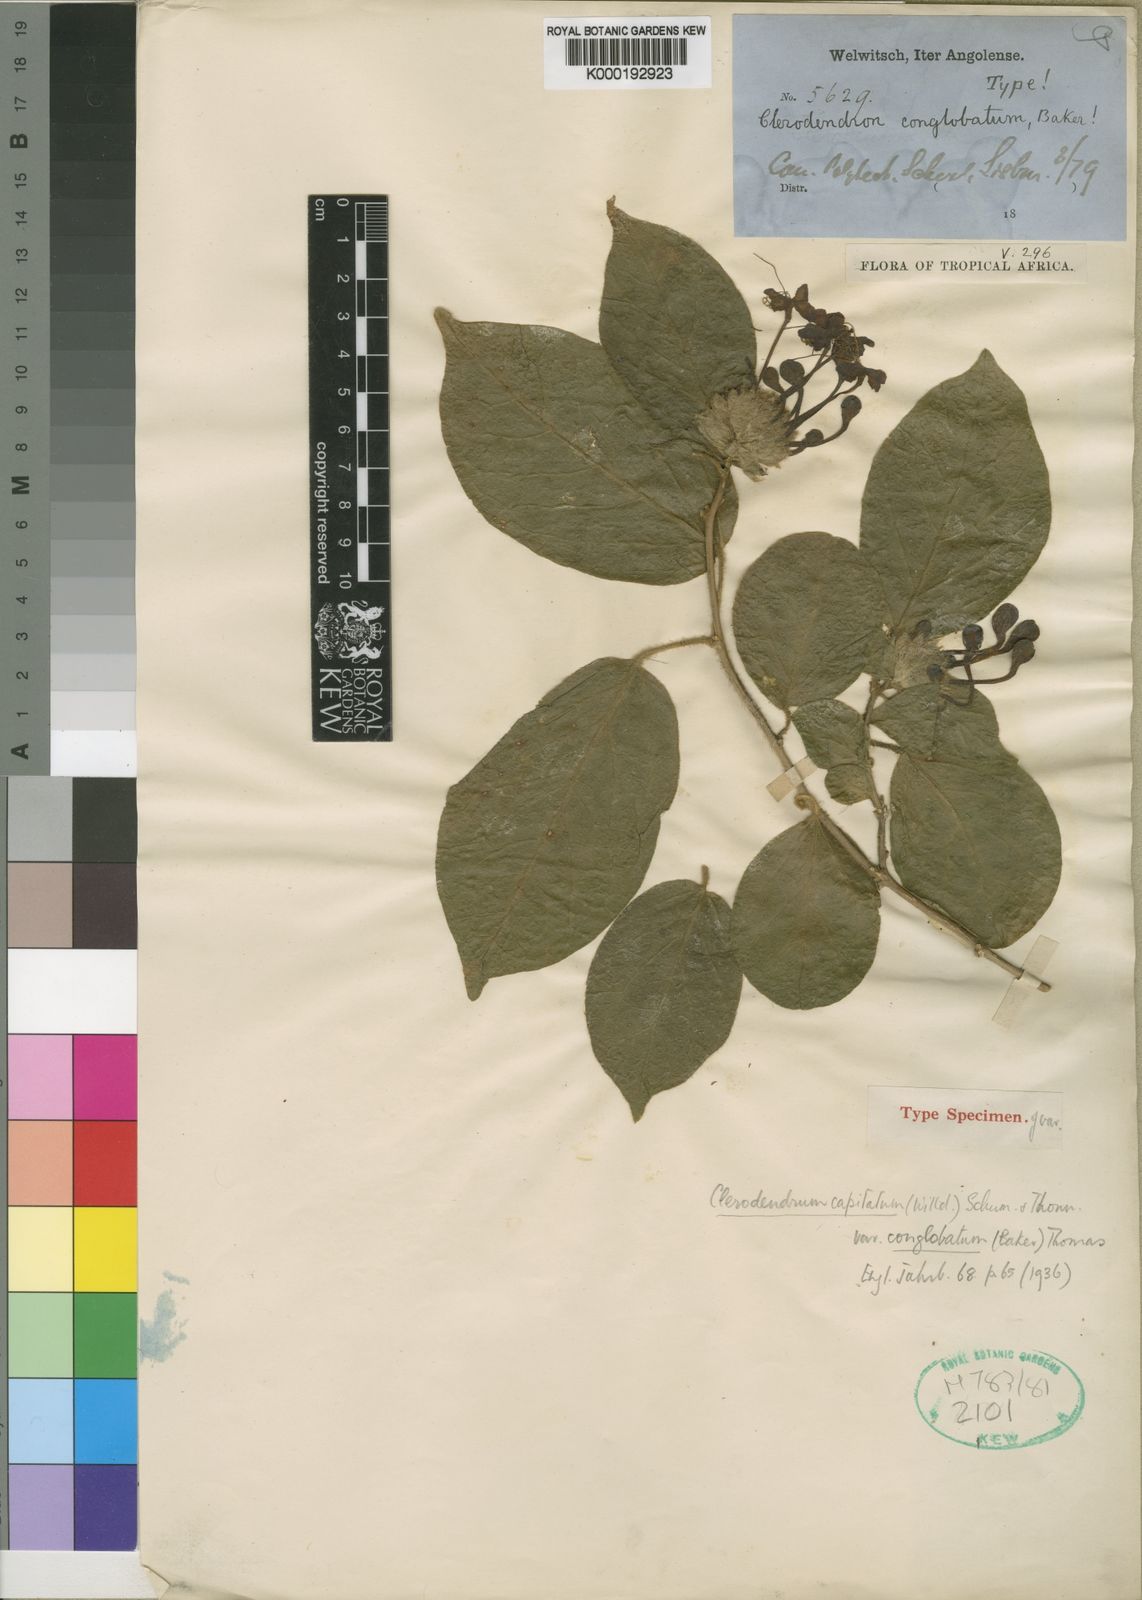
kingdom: Plantae
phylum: Tracheophyta
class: Magnoliopsida
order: Lamiales
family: Lamiaceae
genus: Clerodendrum
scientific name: Clerodendrum capitatum
